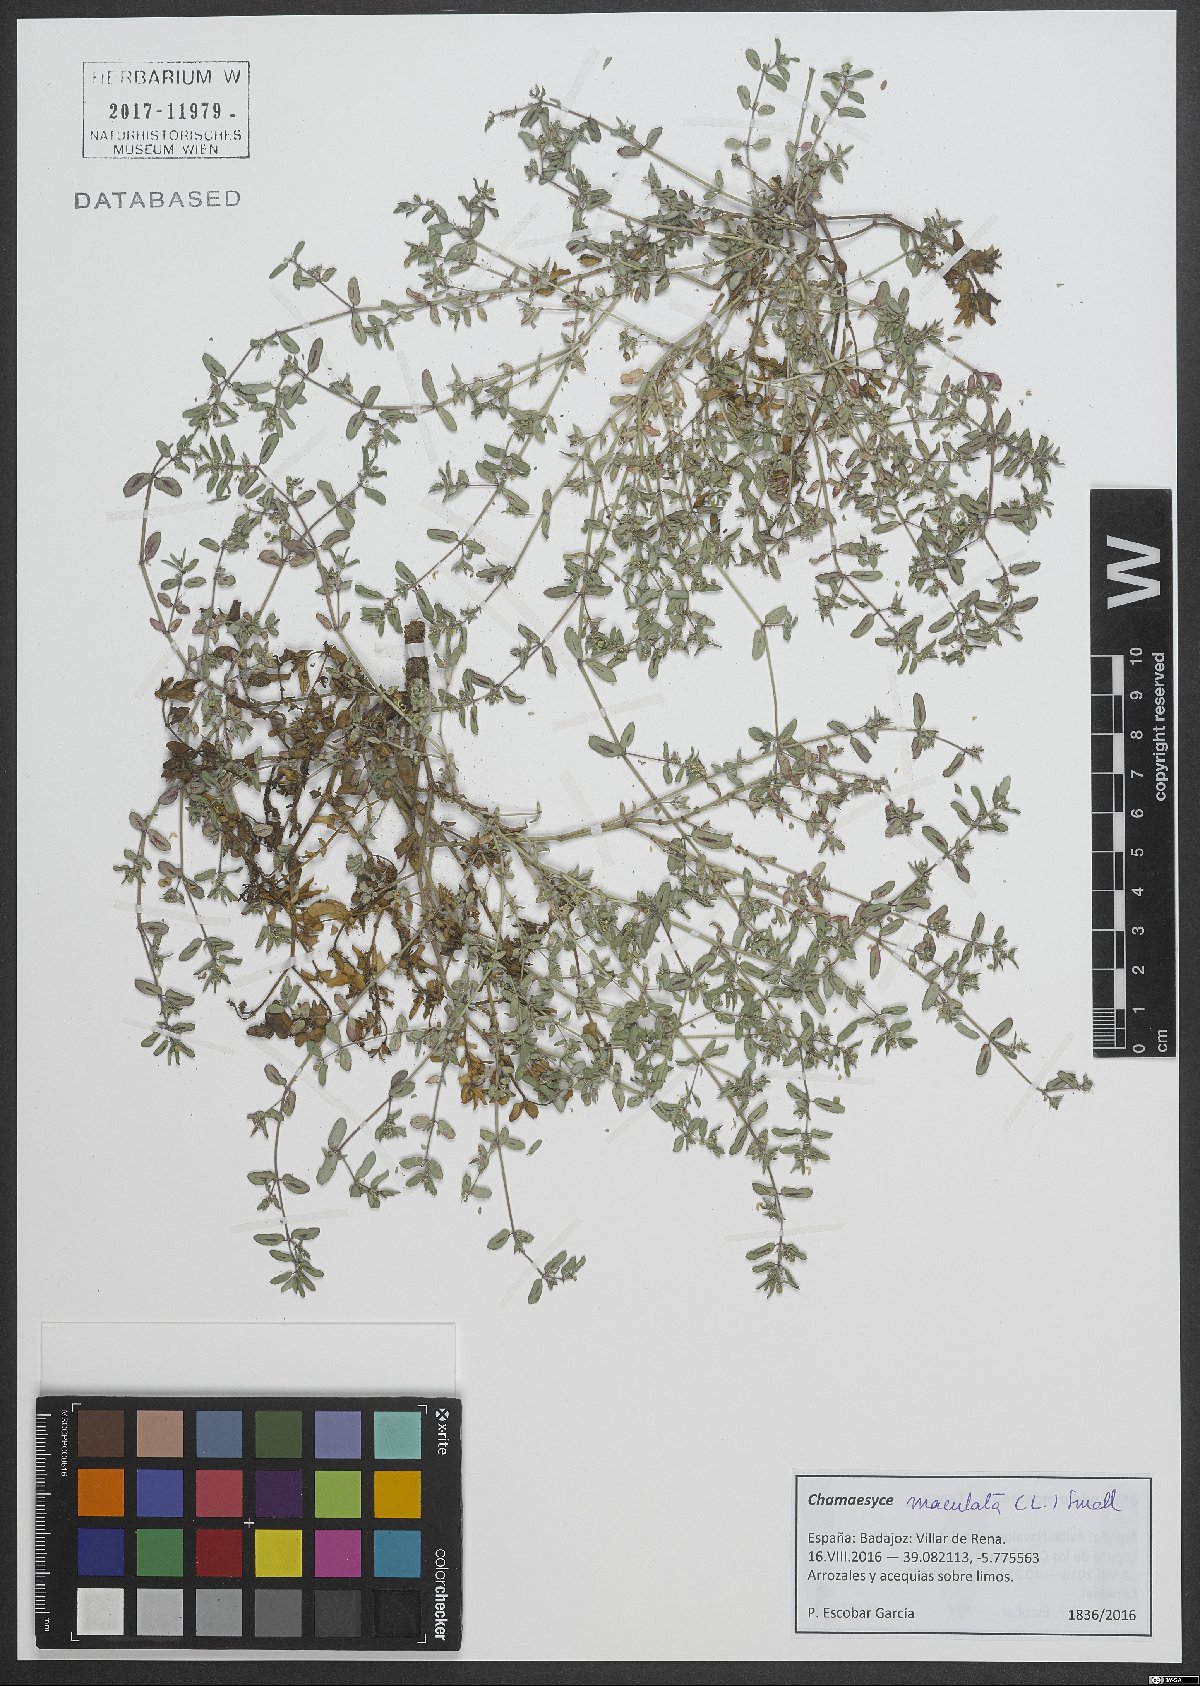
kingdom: Plantae
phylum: Tracheophyta
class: Magnoliopsida
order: Malpighiales
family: Euphorbiaceae
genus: Euphorbia
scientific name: Euphorbia maculata
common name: Spotted spurge
